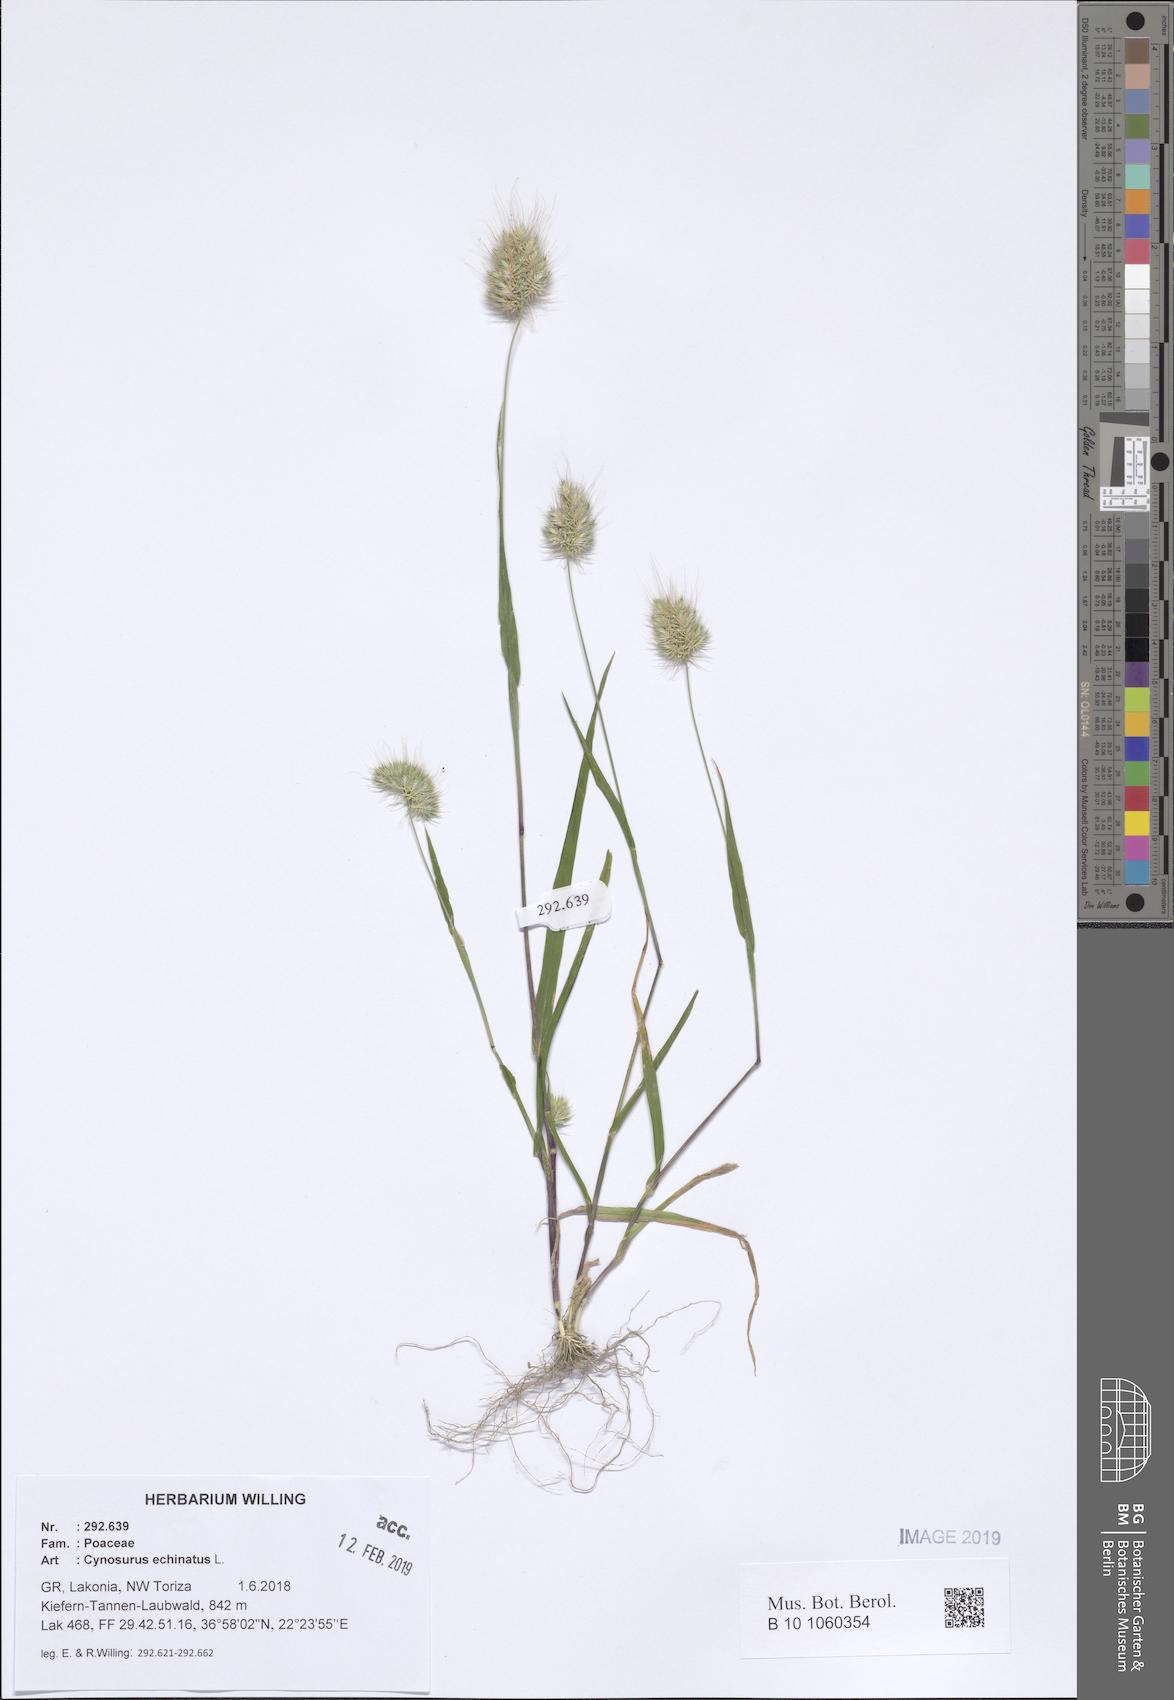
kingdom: Plantae
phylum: Tracheophyta
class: Liliopsida
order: Poales
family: Poaceae
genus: Cynosurus
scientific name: Cynosurus echinatus
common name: Rough dog's-tail
